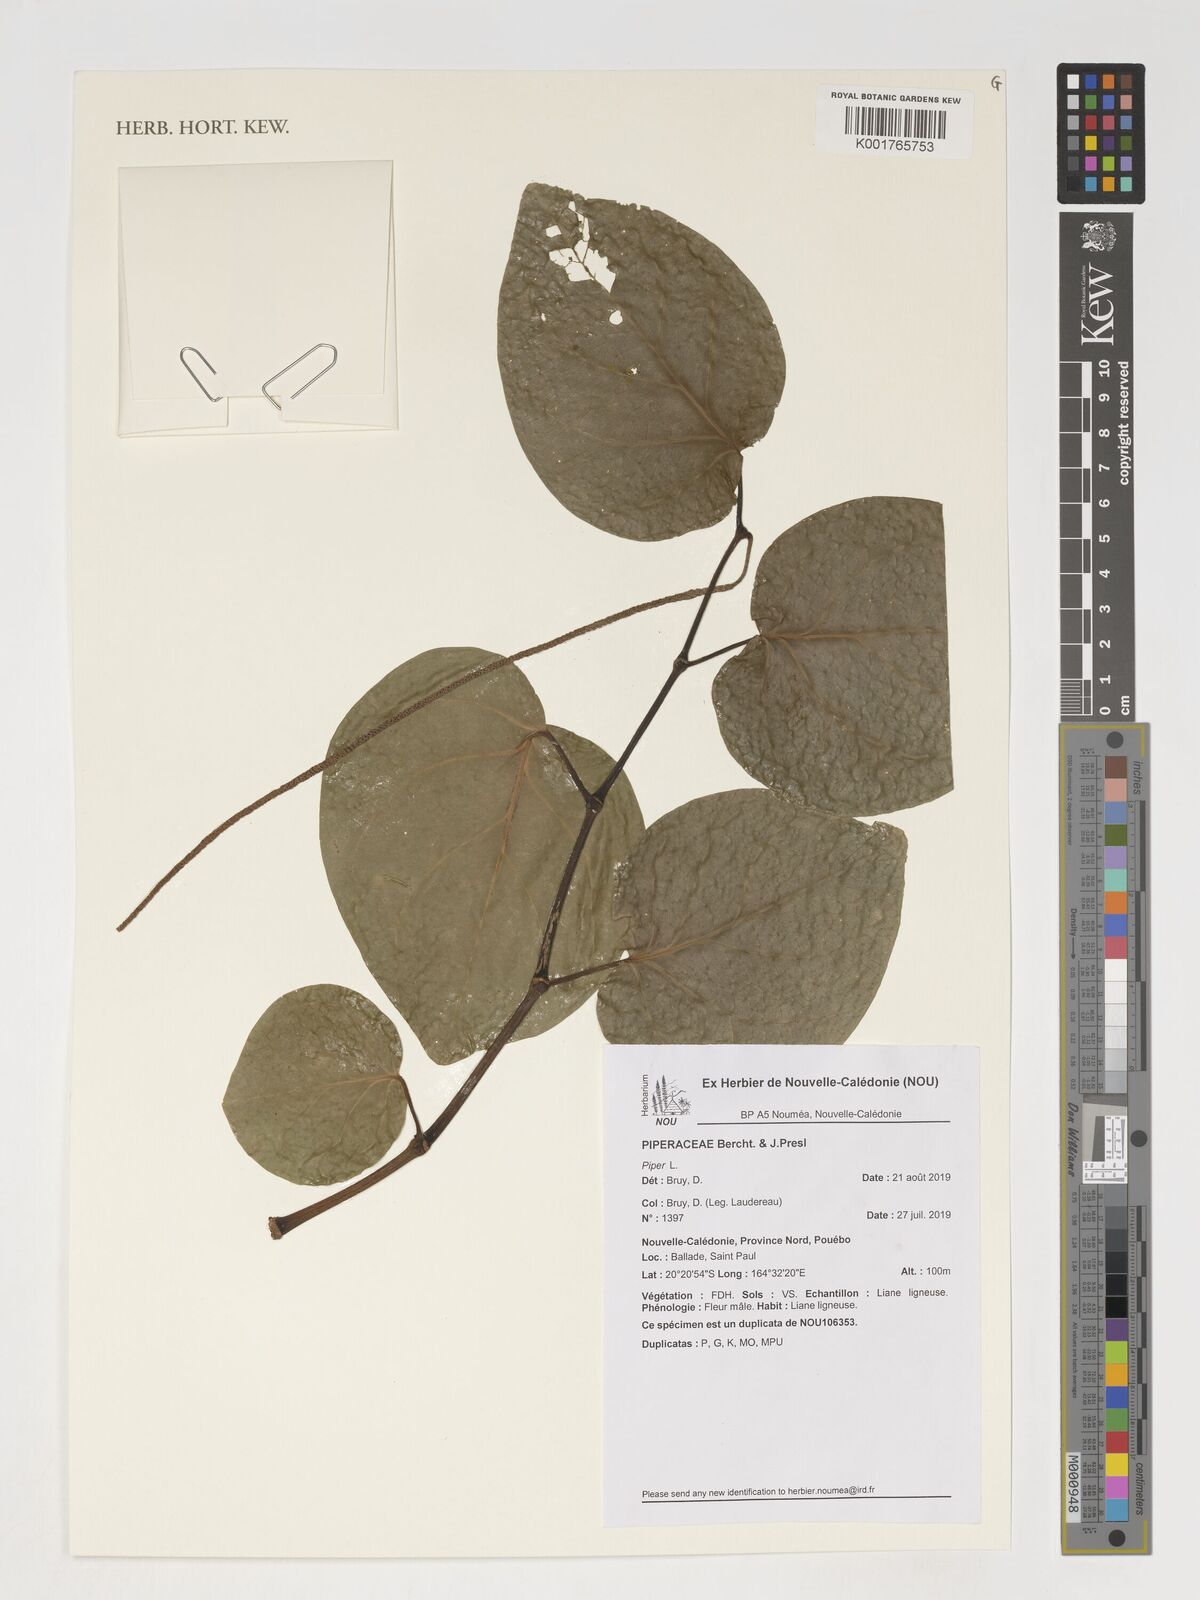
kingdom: Plantae
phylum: Tracheophyta
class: Magnoliopsida
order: Piperales
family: Piperaceae
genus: Piper
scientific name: Piper
